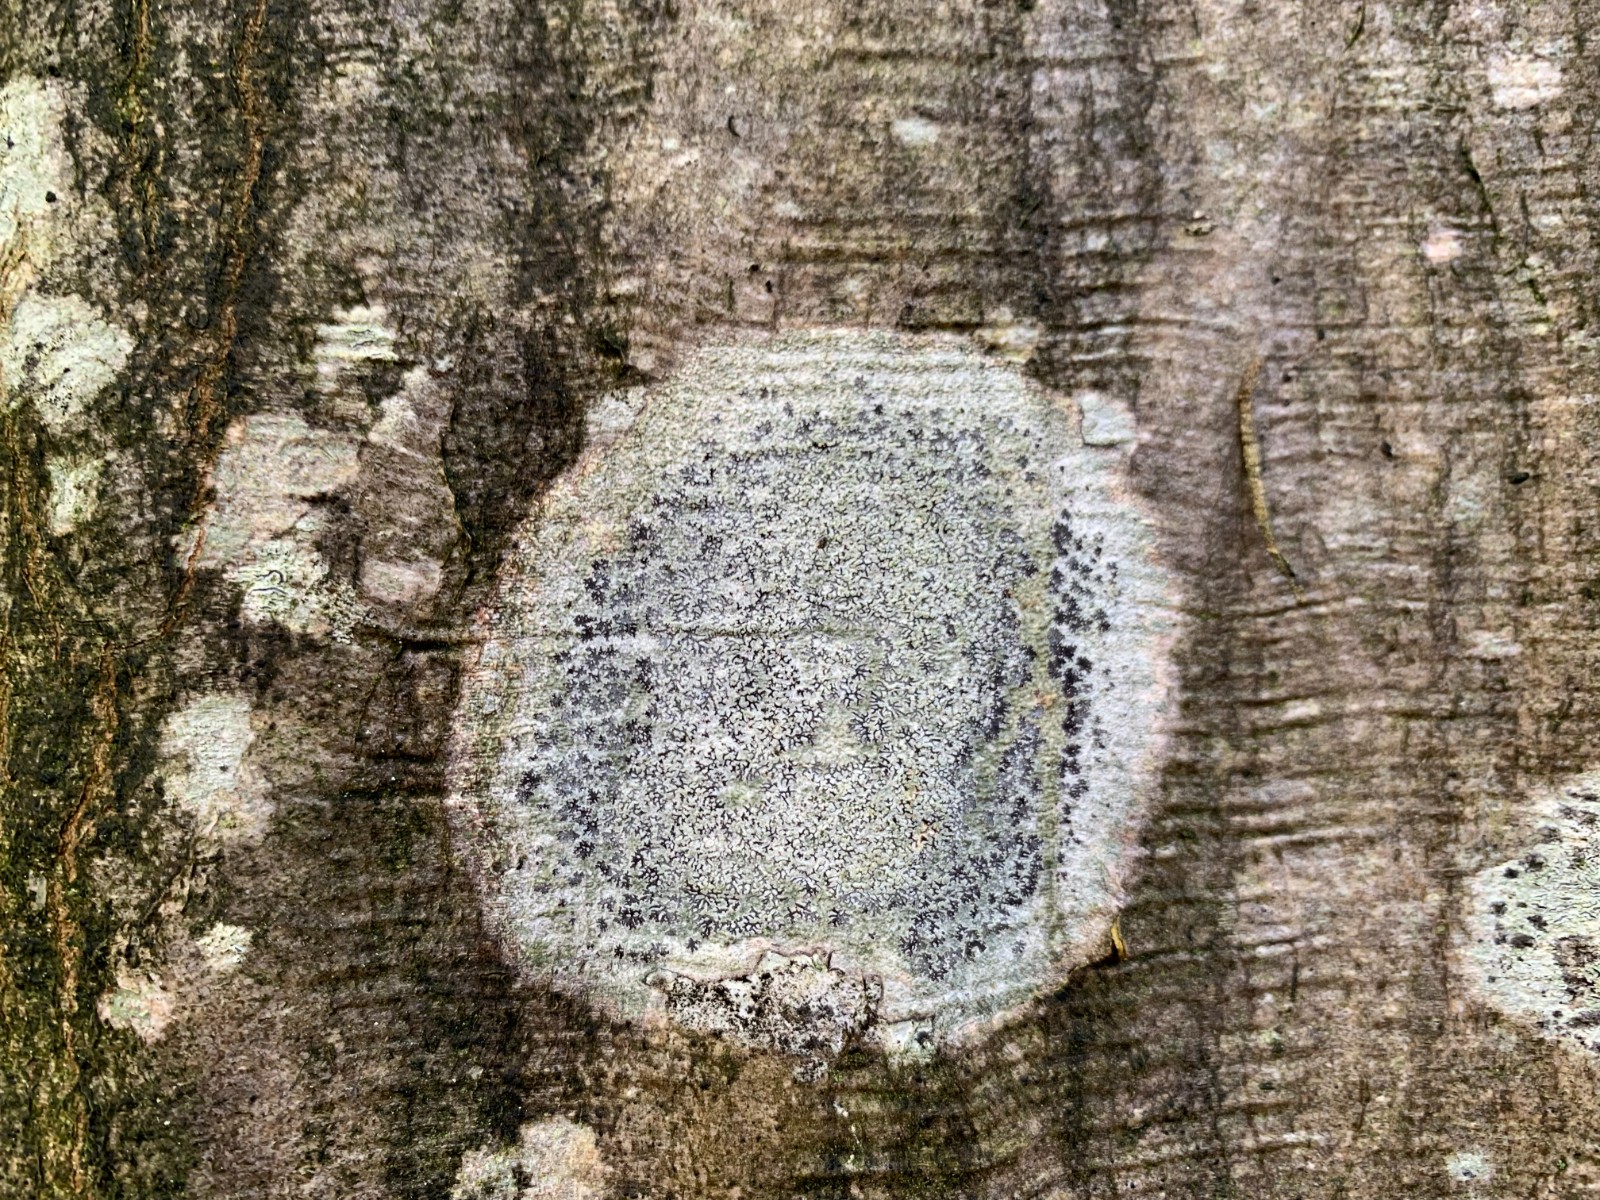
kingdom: Fungi
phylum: Ascomycota
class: Lecanoromycetes
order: Ostropales
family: Graphidaceae
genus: Phaeographis
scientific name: Phaeographis inusta
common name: hassel-skriftlav
